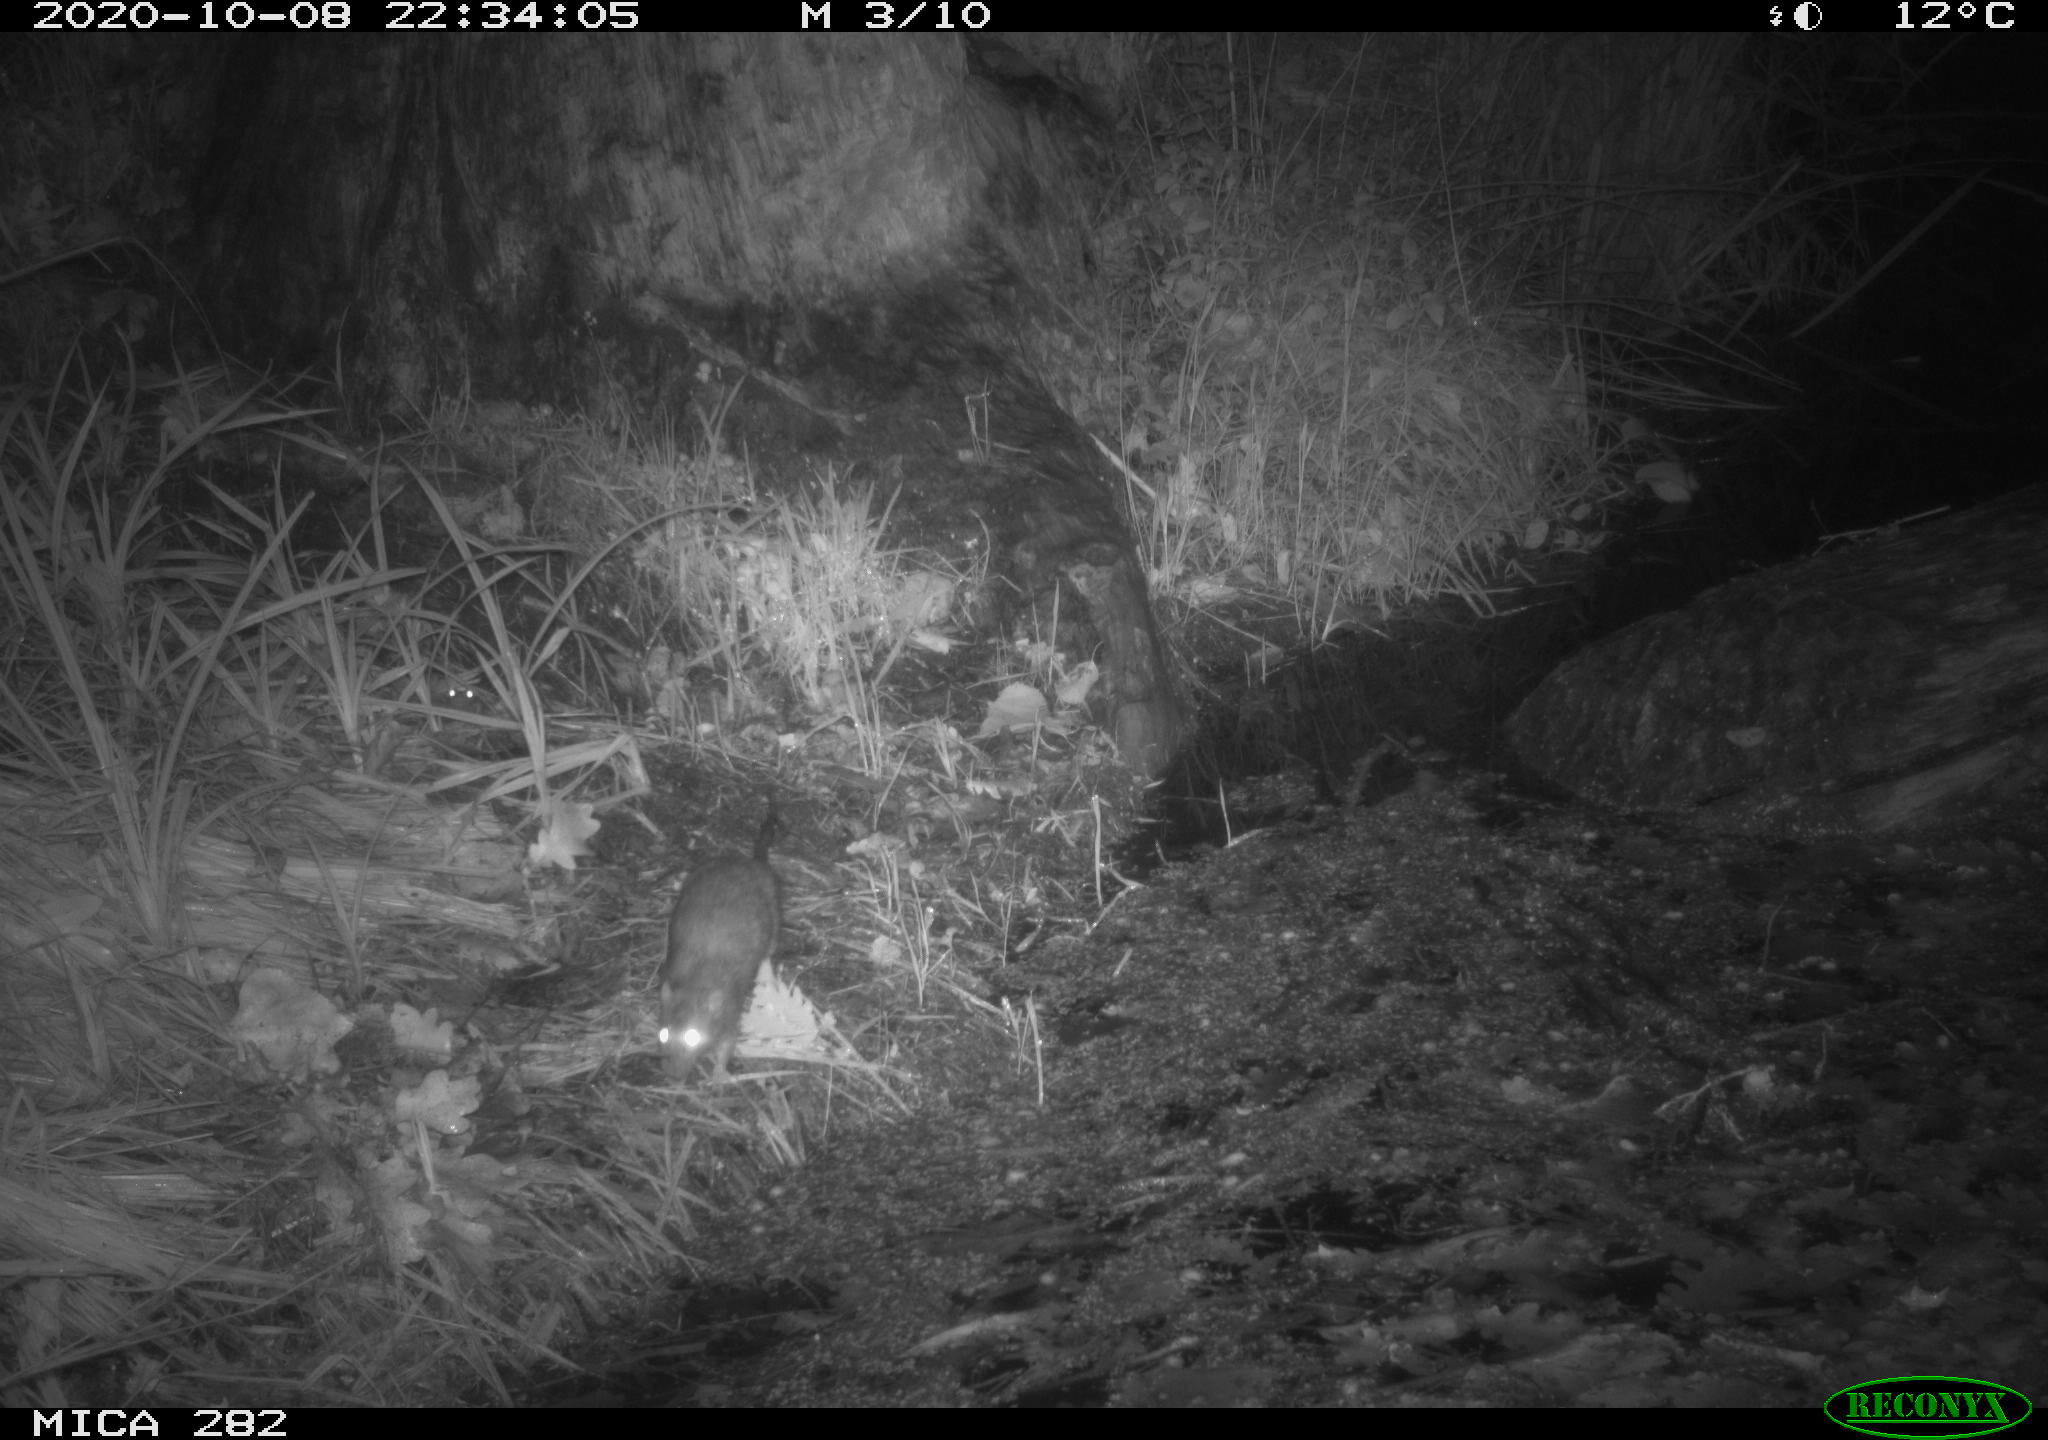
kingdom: Animalia
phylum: Chordata
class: Mammalia
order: Rodentia
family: Muridae
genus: Rattus
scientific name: Rattus norvegicus
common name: Brown rat
